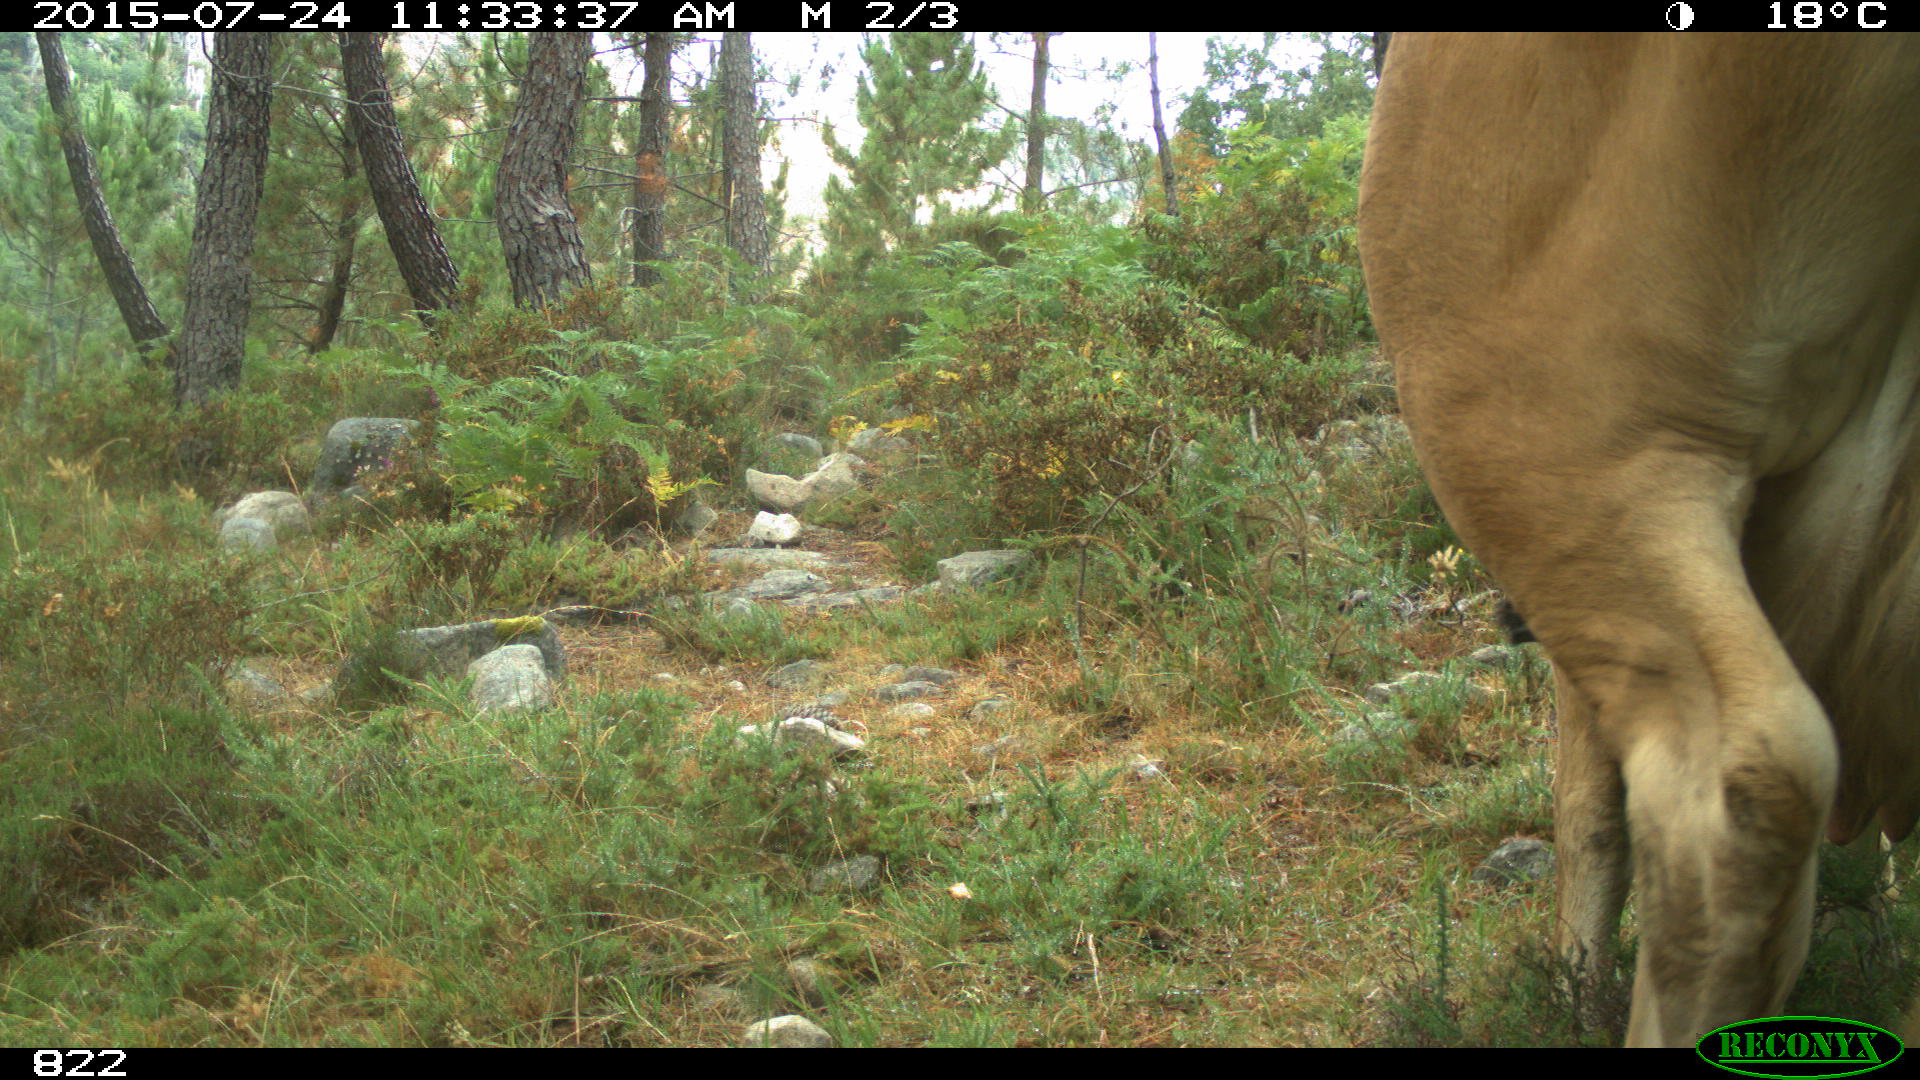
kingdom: Animalia
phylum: Chordata
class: Mammalia
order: Artiodactyla
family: Bovidae
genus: Bos
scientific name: Bos taurus
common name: Domesticated cattle
